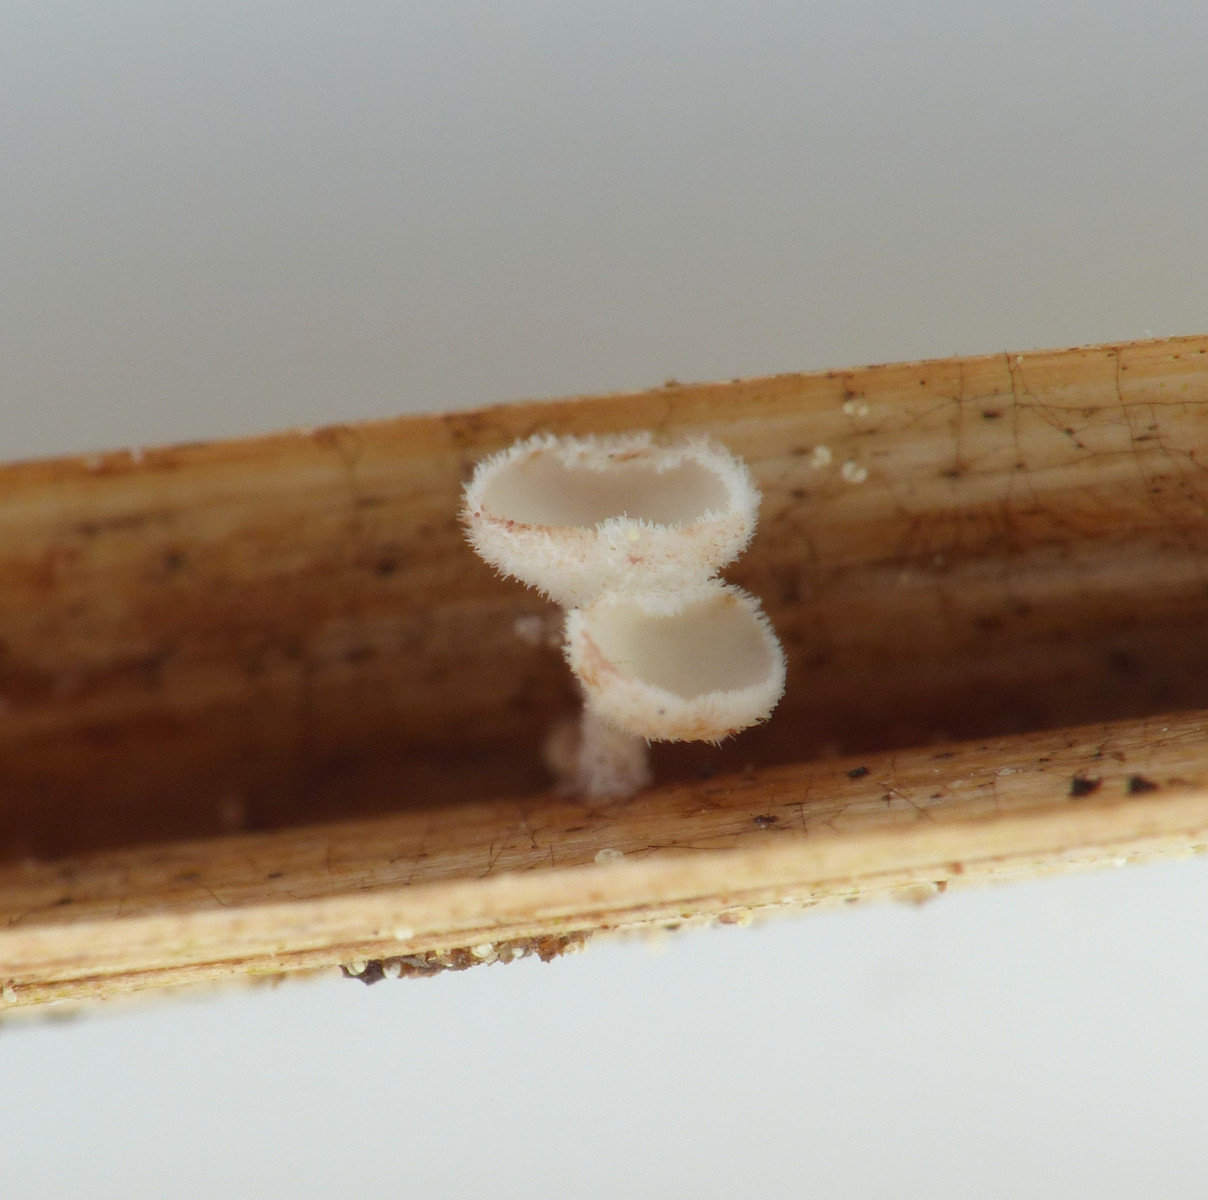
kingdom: Fungi
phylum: Ascomycota
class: Leotiomycetes
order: Helotiales
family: Lachnaceae
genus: Lachnum
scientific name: Lachnum tenuipilosum
